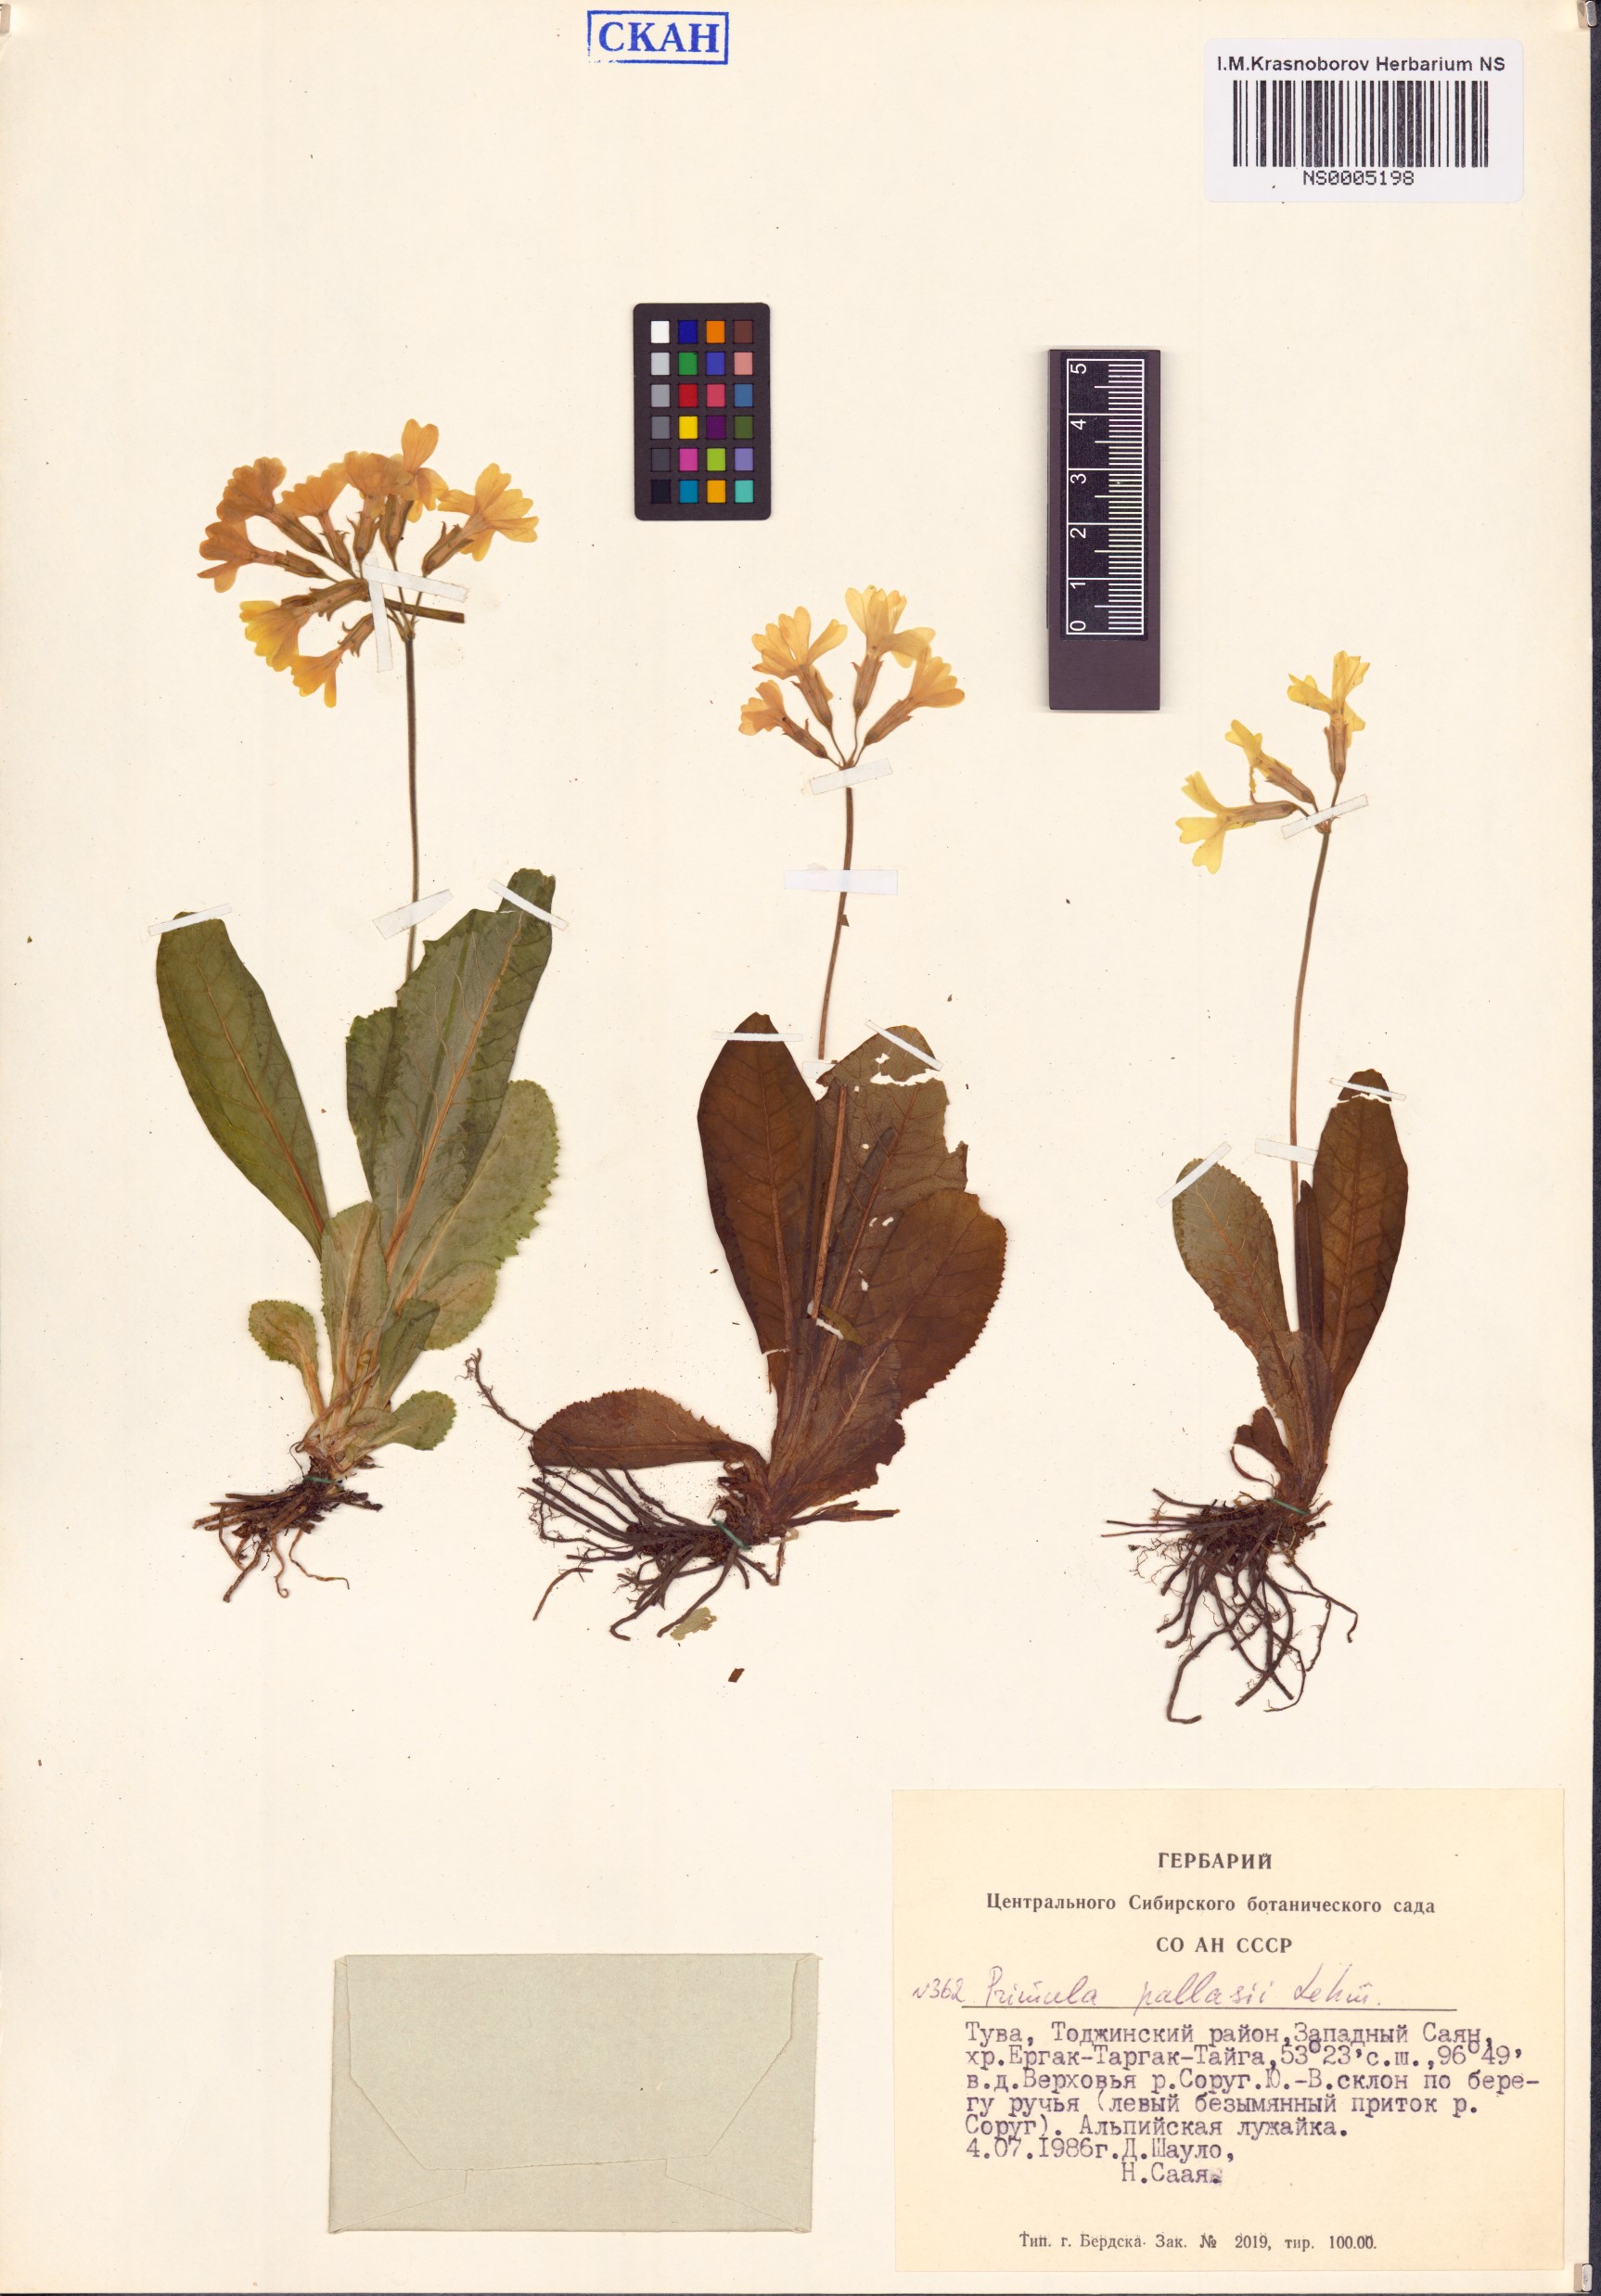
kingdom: Plantae
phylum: Tracheophyta
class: Magnoliopsida
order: Ericales
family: Primulaceae
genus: Primula
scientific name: Primula elatior
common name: Oxlip
